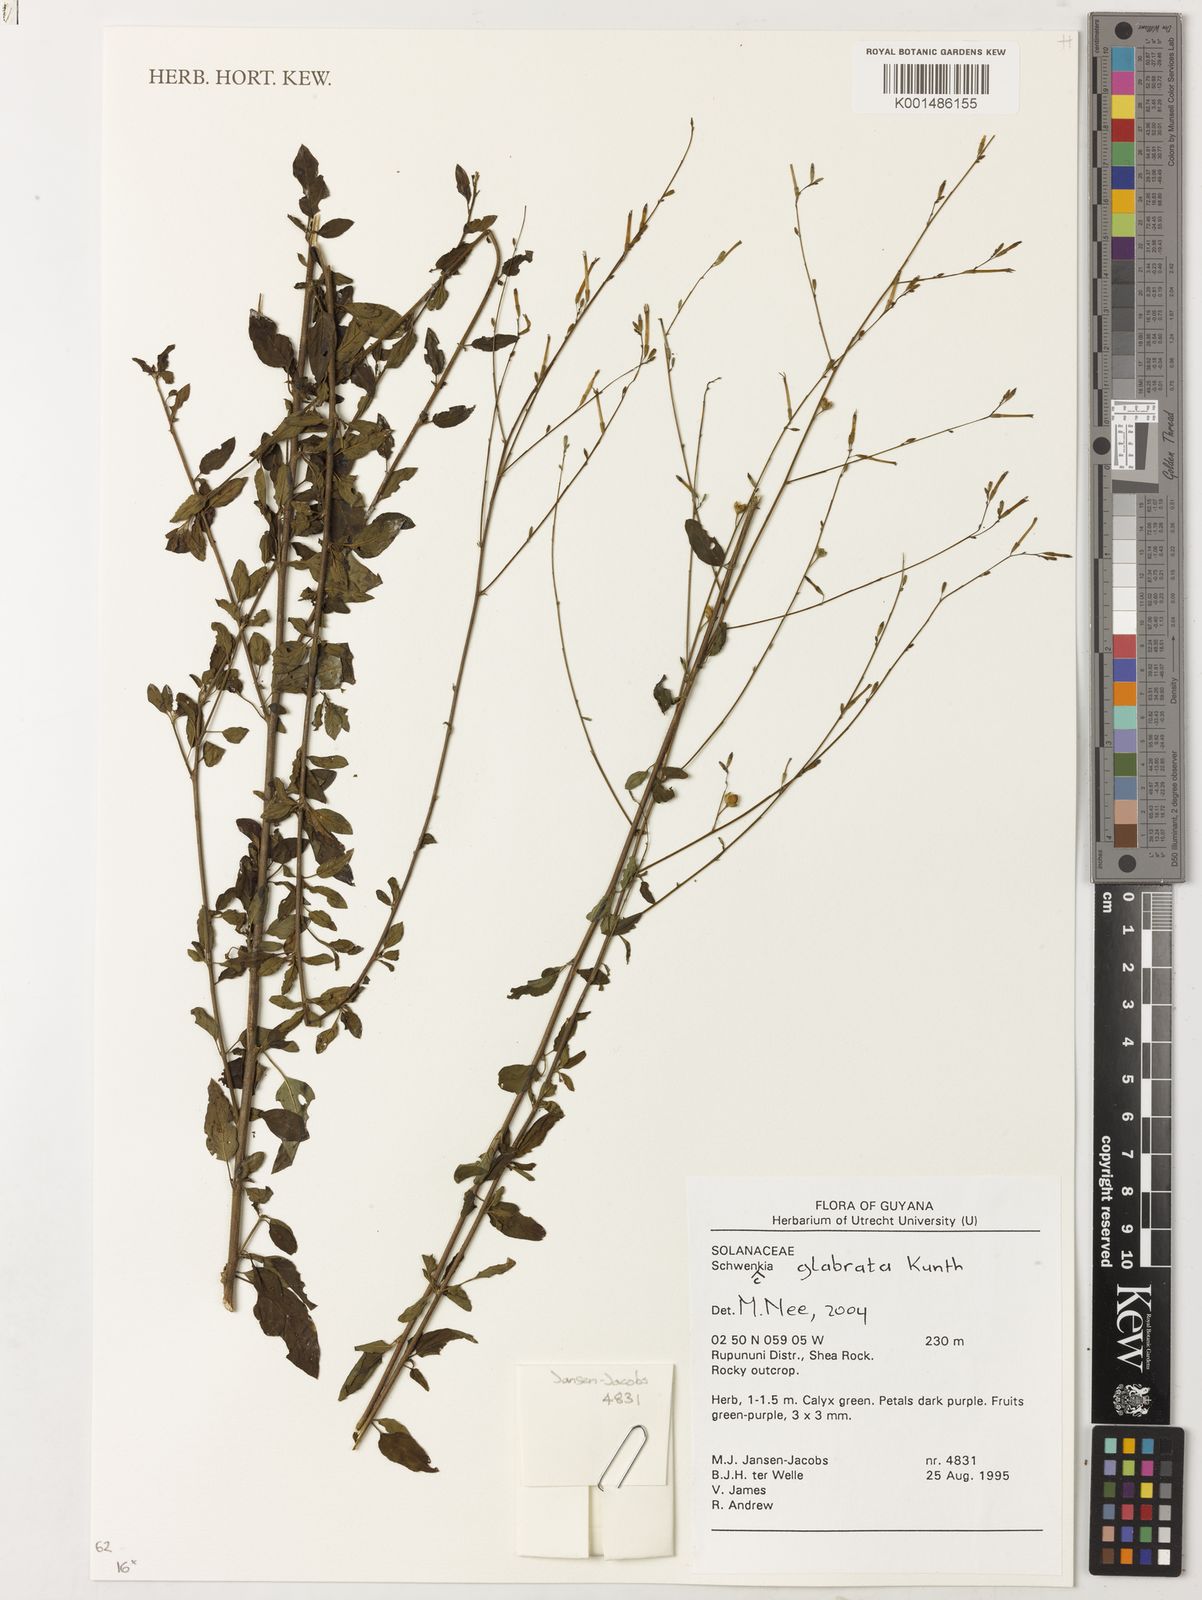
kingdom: Plantae
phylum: Tracheophyta
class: Magnoliopsida
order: Solanales
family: Solanaceae
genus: Schwenckia
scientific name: Schwenckia glabrata
